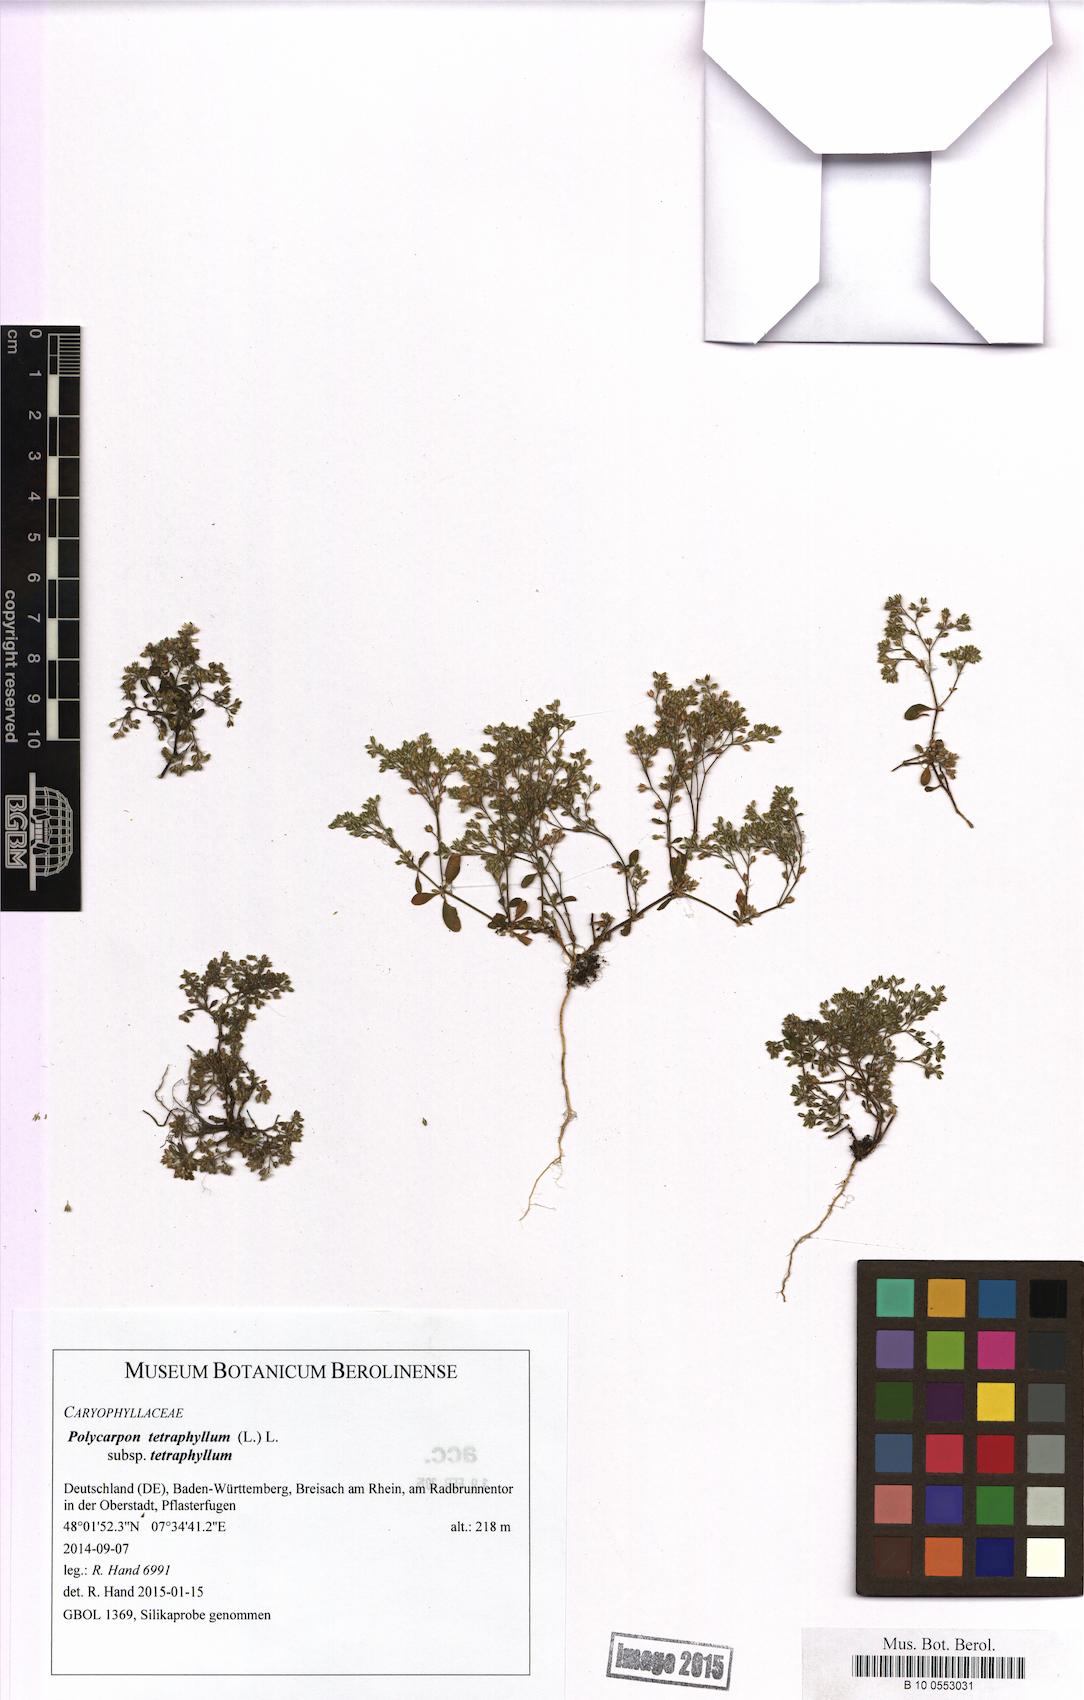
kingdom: Plantae
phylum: Tracheophyta
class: Magnoliopsida
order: Caryophyllales
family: Caryophyllaceae
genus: Polycarpon
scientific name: Polycarpon tetraphyllum
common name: Four-leaved all-seed
